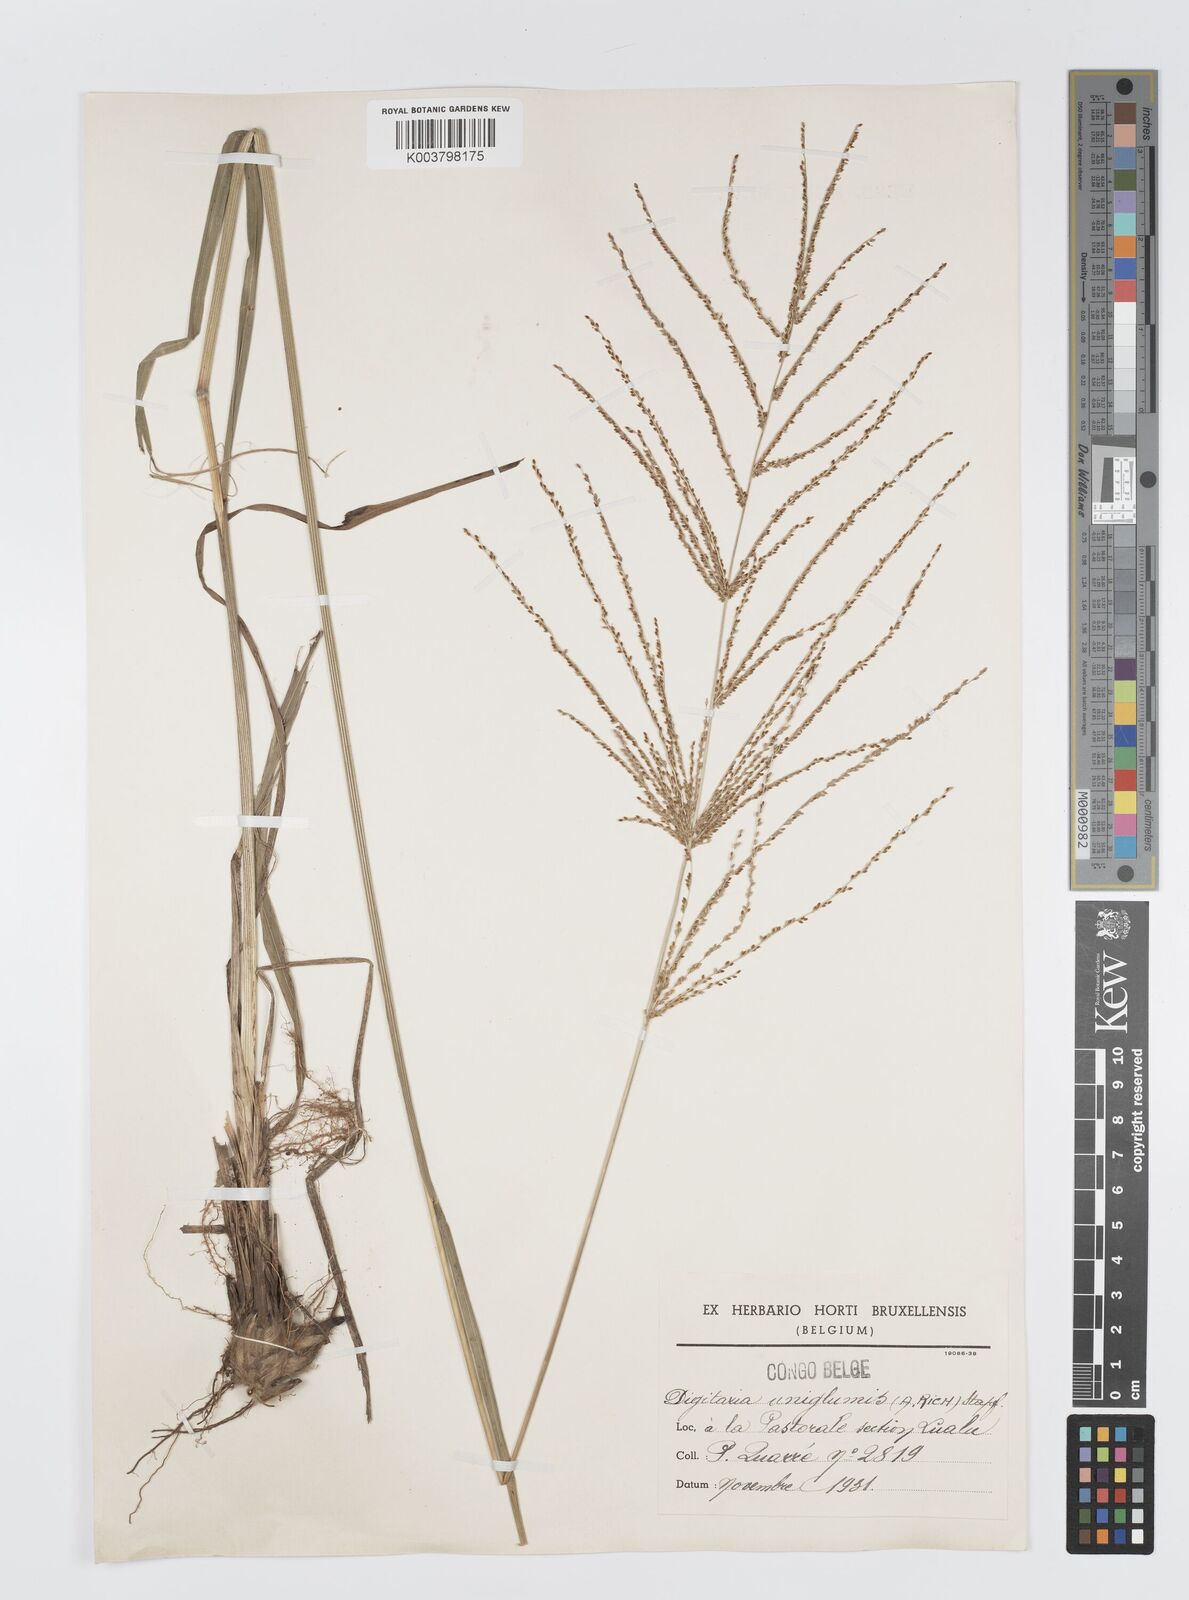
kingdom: Plantae
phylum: Tracheophyta
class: Liliopsida
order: Poales
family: Poaceae
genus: Digitaria
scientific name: Digitaria diagonalis
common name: Brown-seed finger grass
